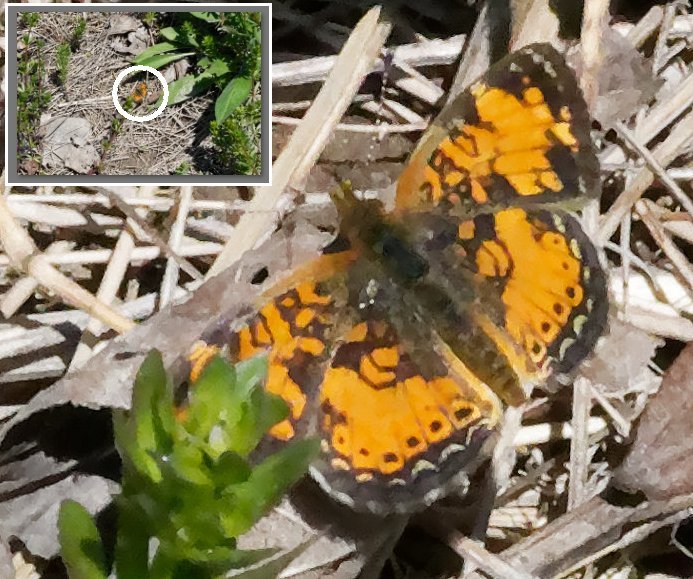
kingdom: Animalia
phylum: Arthropoda
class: Insecta
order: Lepidoptera
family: Nymphalidae
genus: Phyciodes
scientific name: Phyciodes tharos
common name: Northern Crescent
